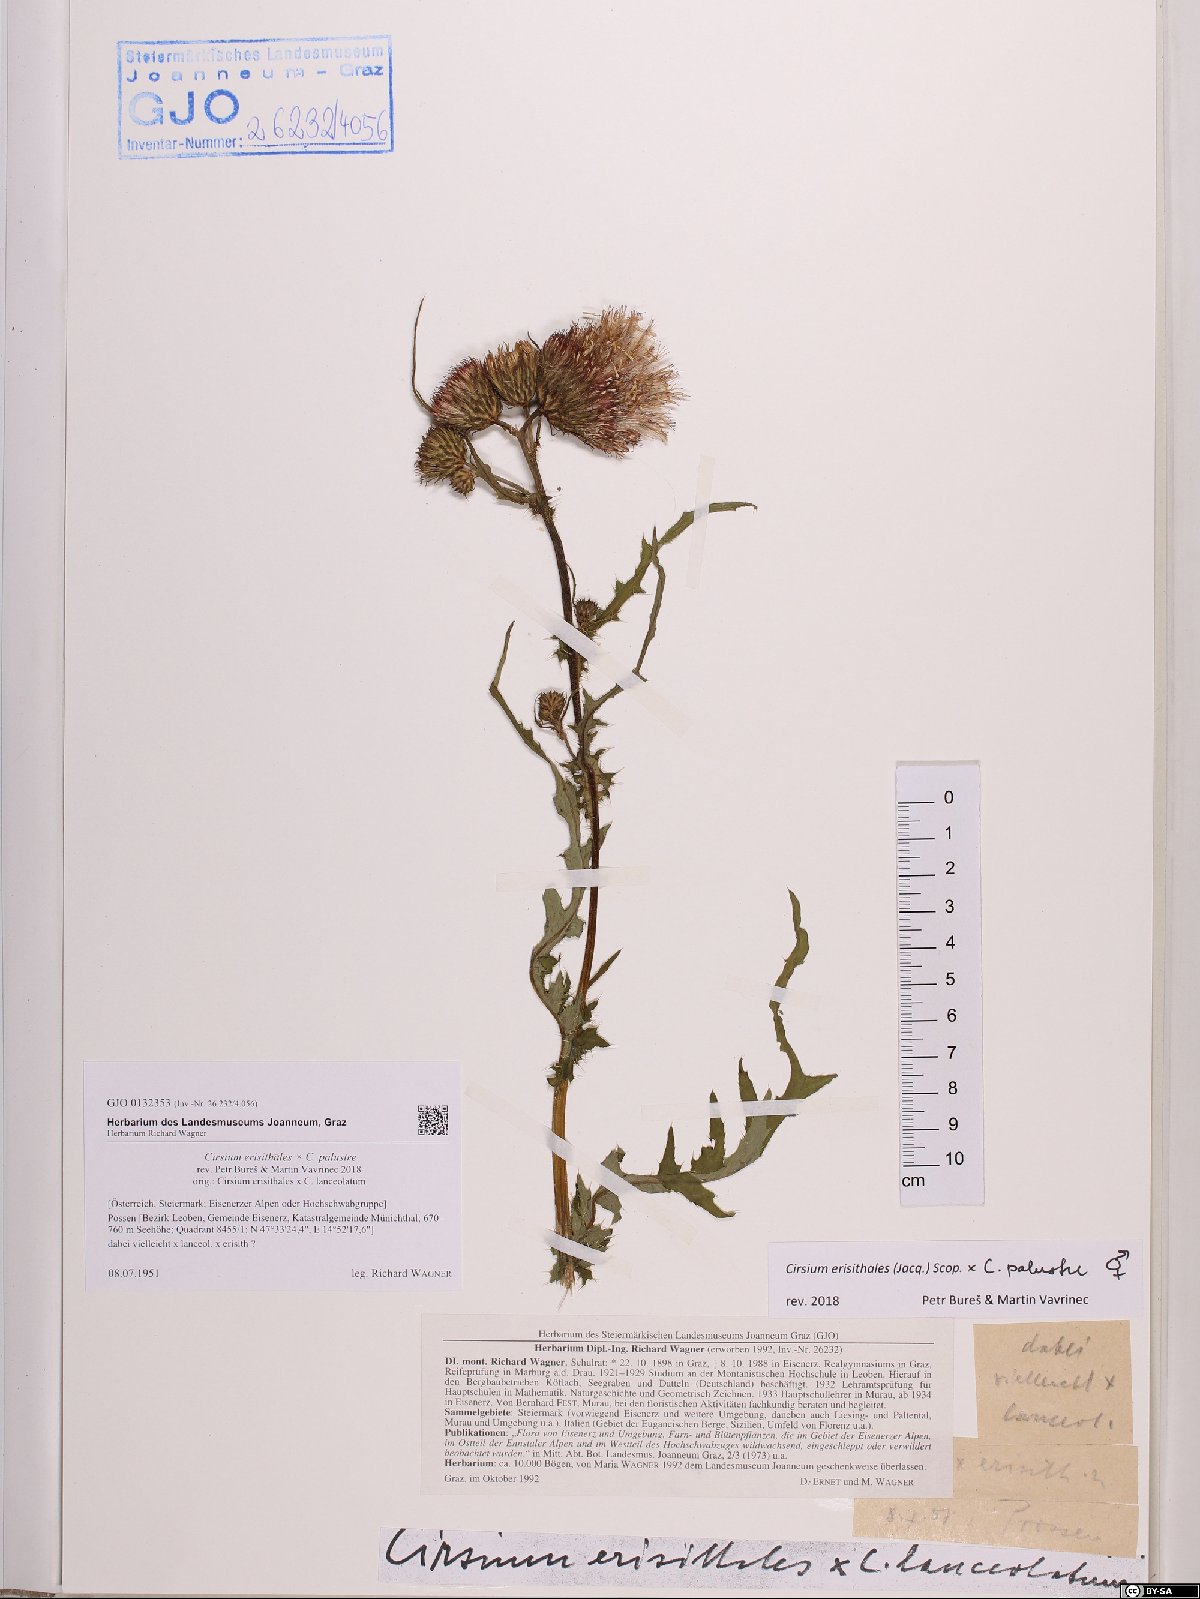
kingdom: Plantae
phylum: Tracheophyta
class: Magnoliopsida
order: Asterales
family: Asteraceae
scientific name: Asteraceae
